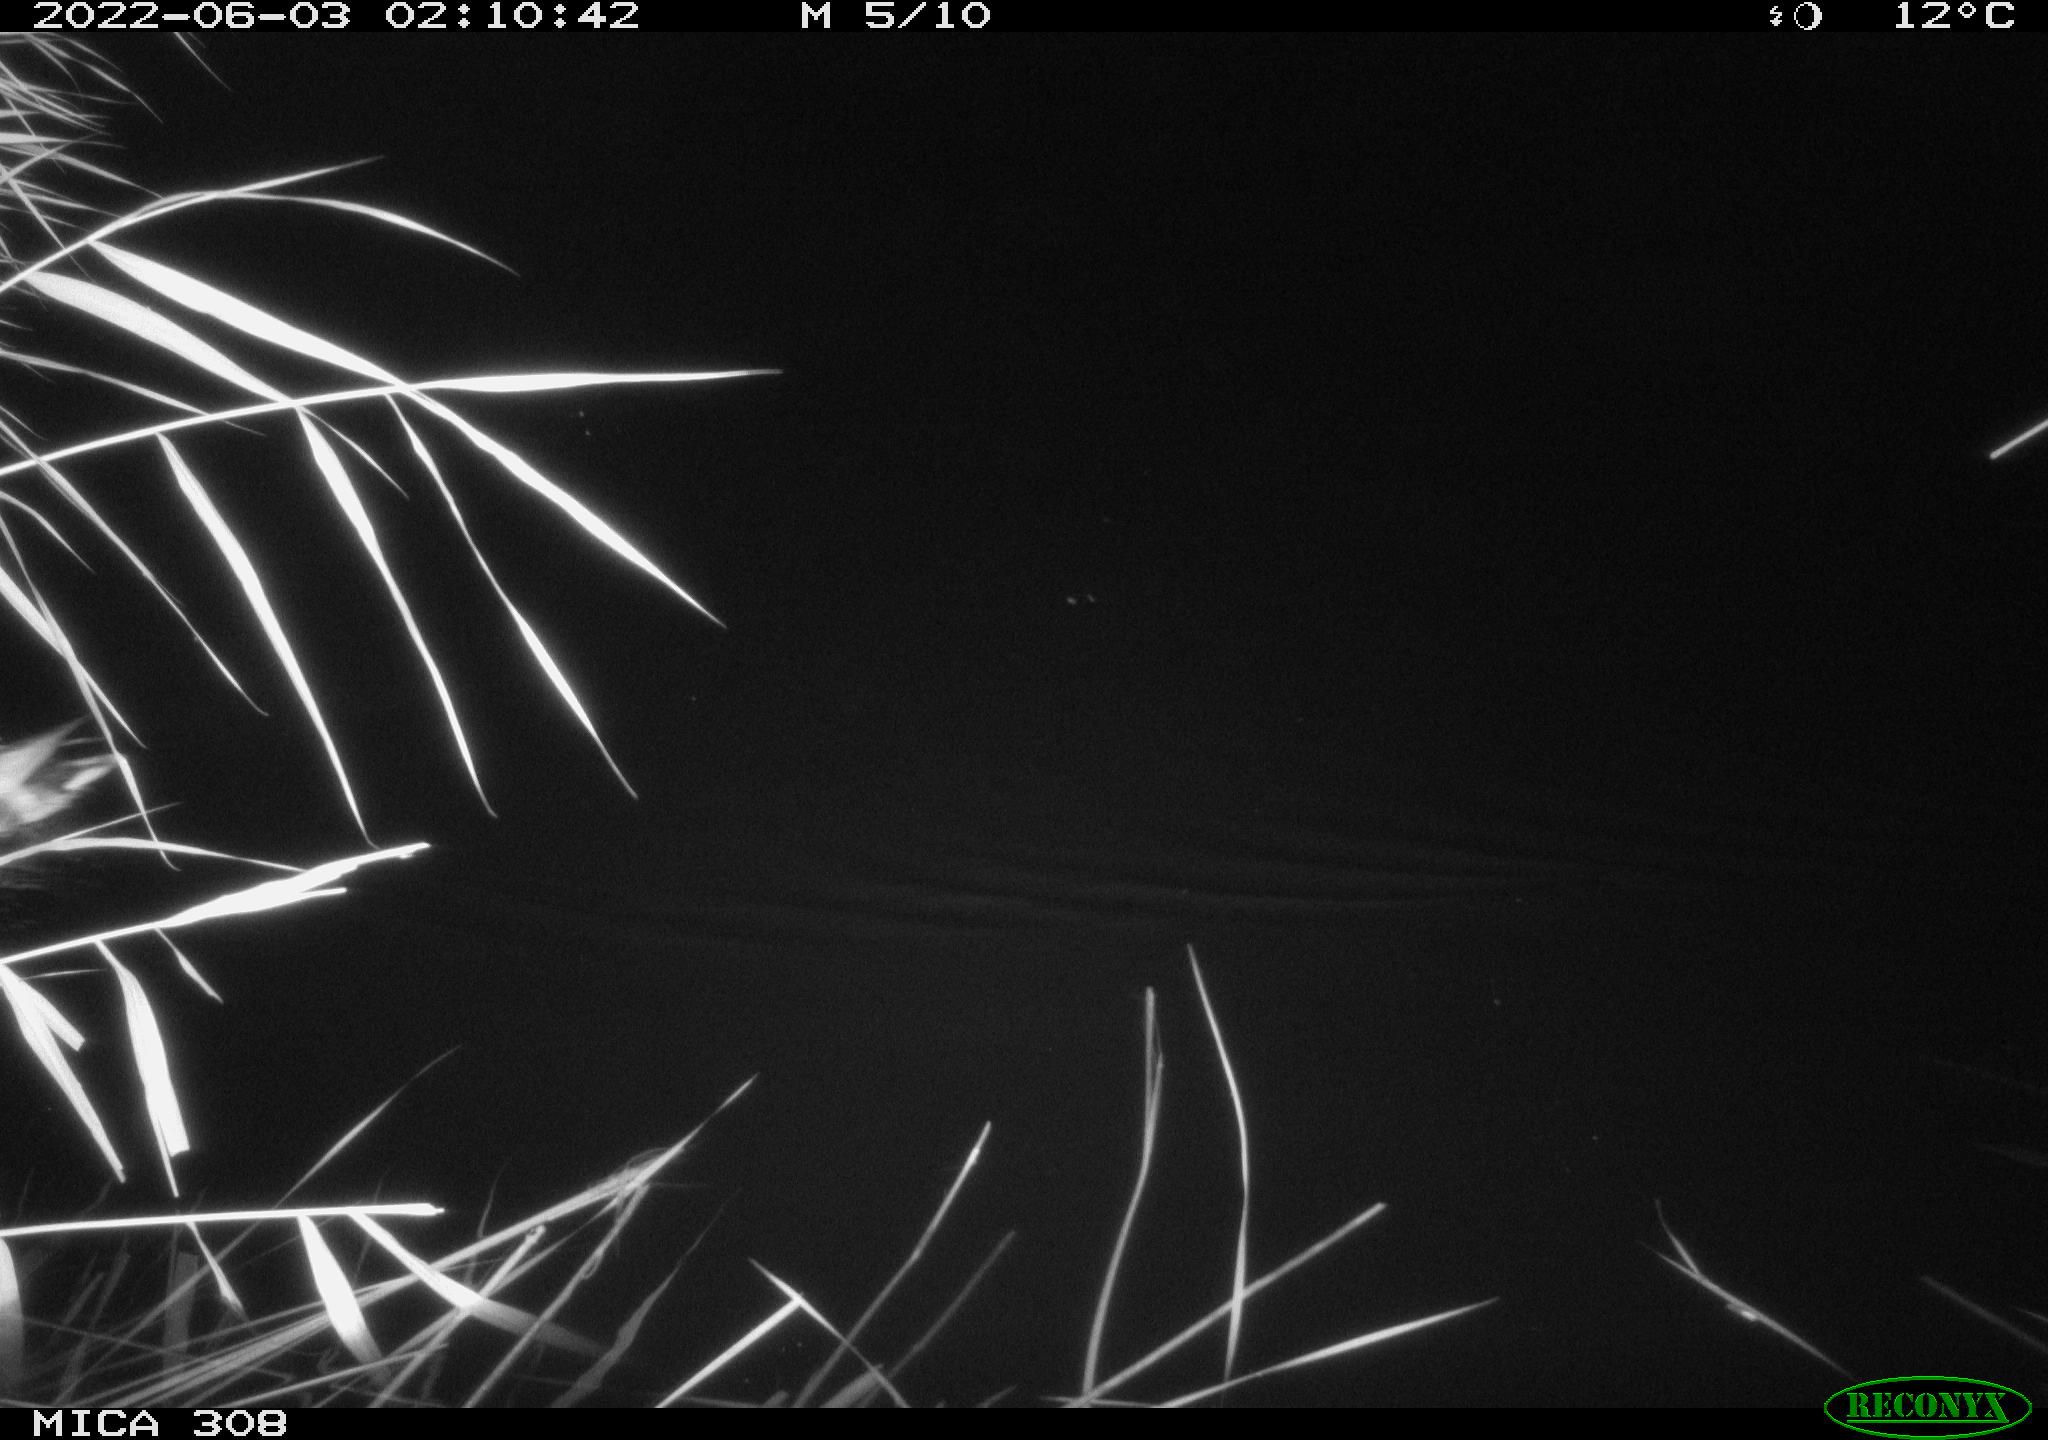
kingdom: Animalia
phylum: Chordata
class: Aves
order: Anseriformes
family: Anatidae
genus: Anas
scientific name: Anas platyrhynchos
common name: Mallard
